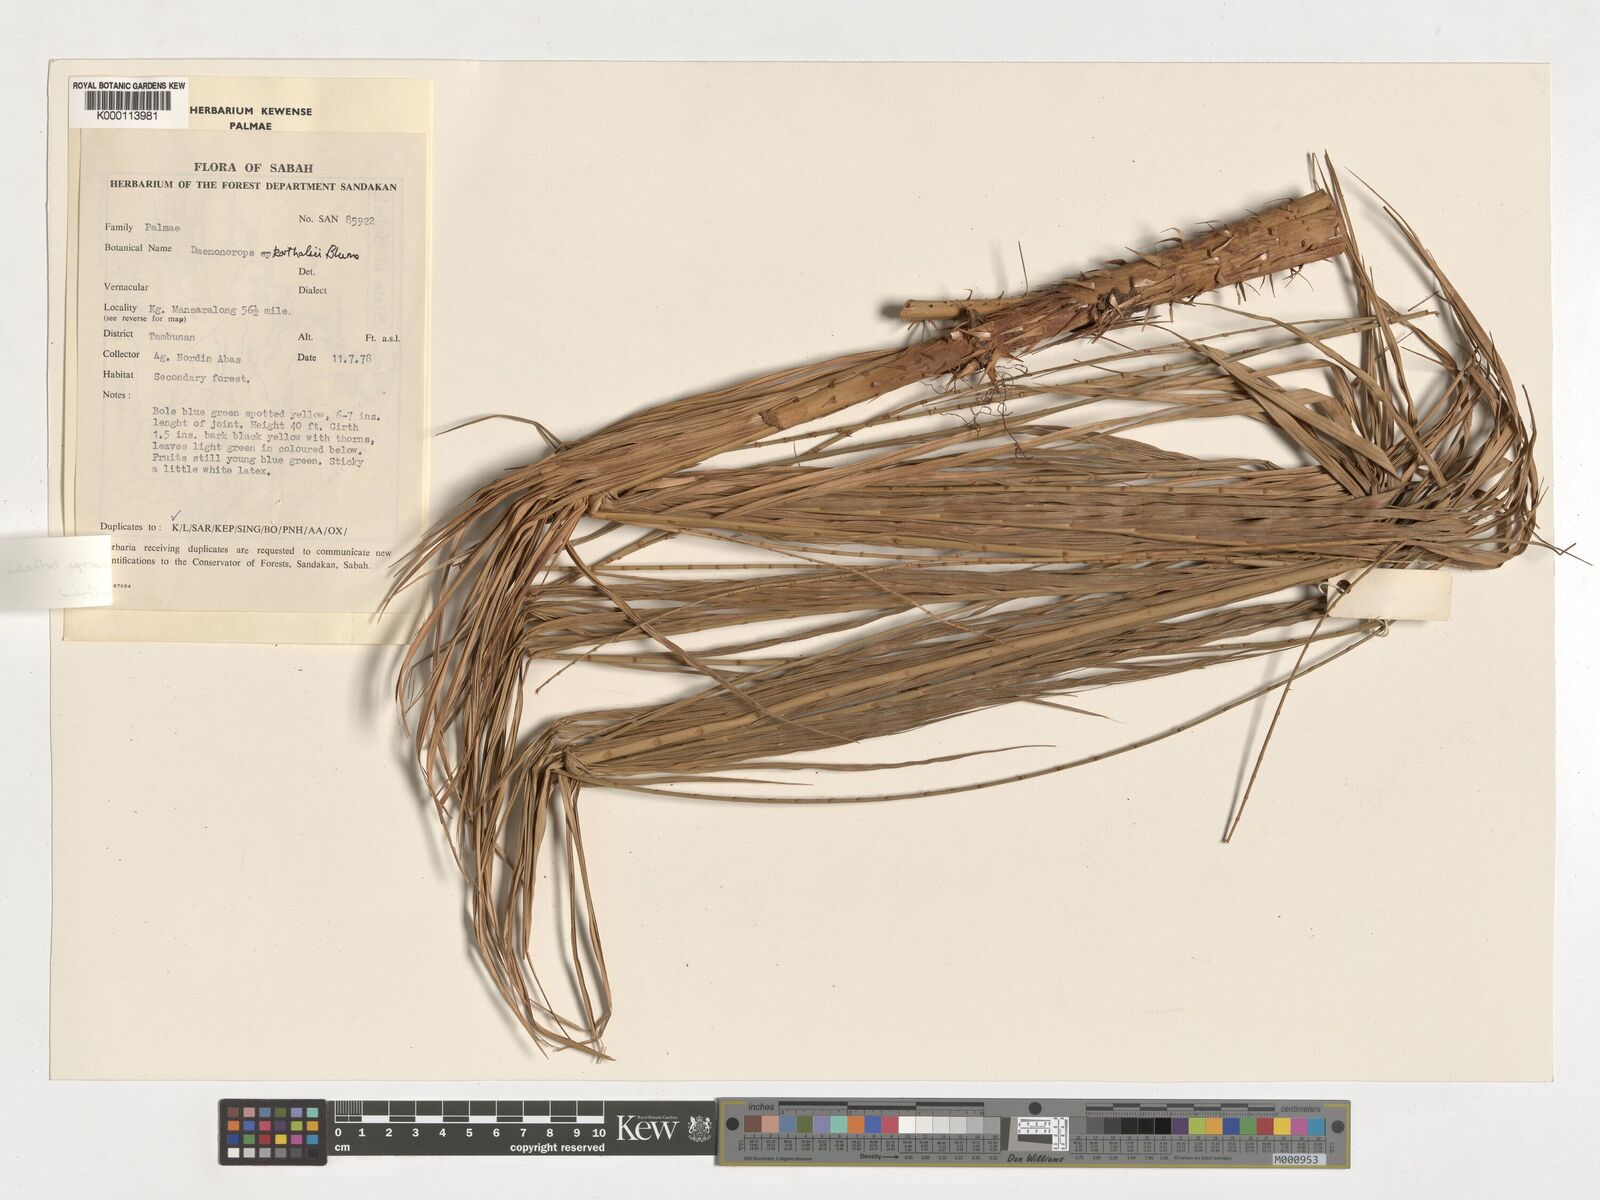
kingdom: Plantae
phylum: Tracheophyta
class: Liliopsida
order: Arecales
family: Arecaceae
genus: Calamus
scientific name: Calamus hirsutus
